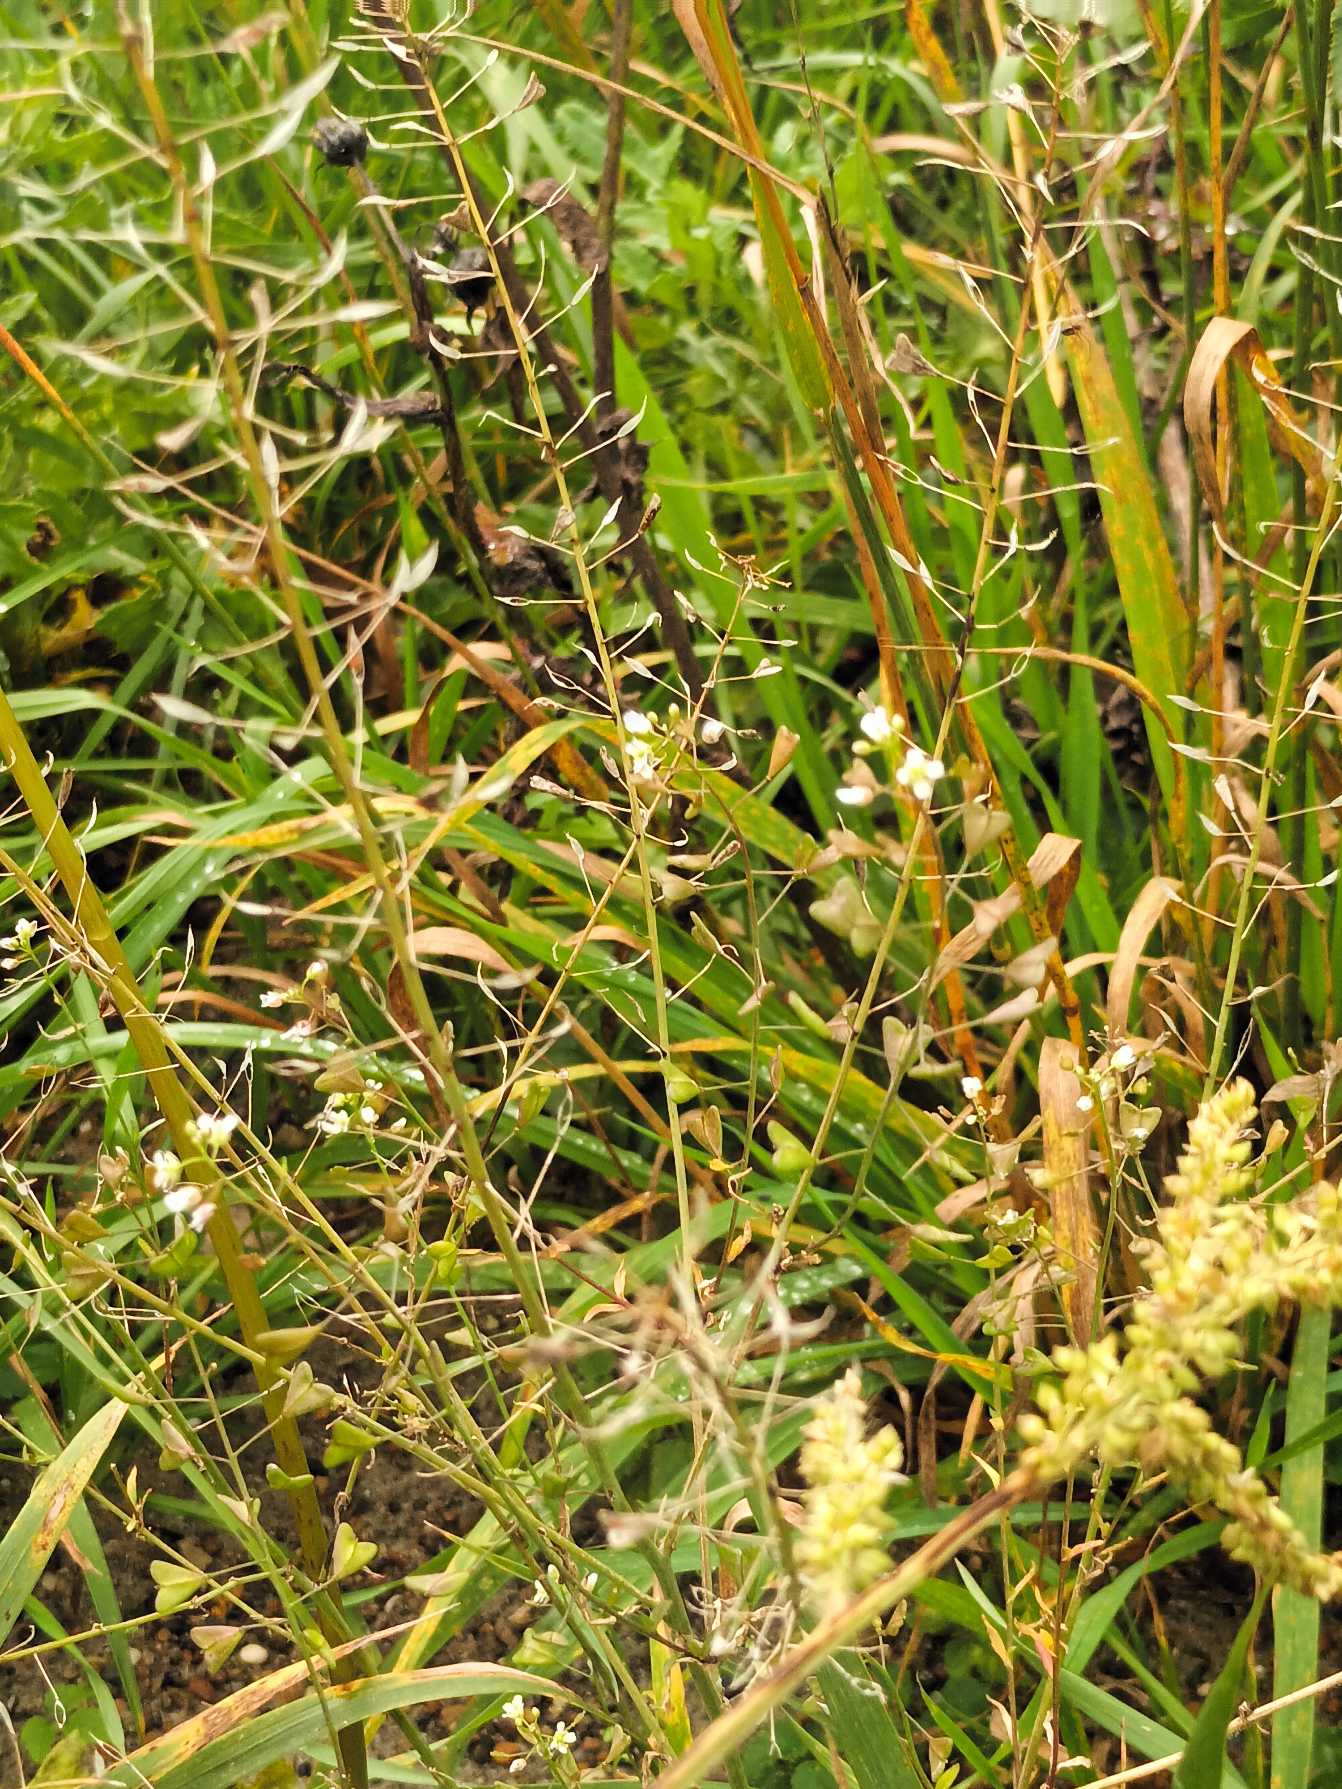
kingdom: Plantae
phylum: Tracheophyta
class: Magnoliopsida
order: Brassicales
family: Brassicaceae
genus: Capsella
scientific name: Capsella bursa-pastoris
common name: Hyrdetaske
